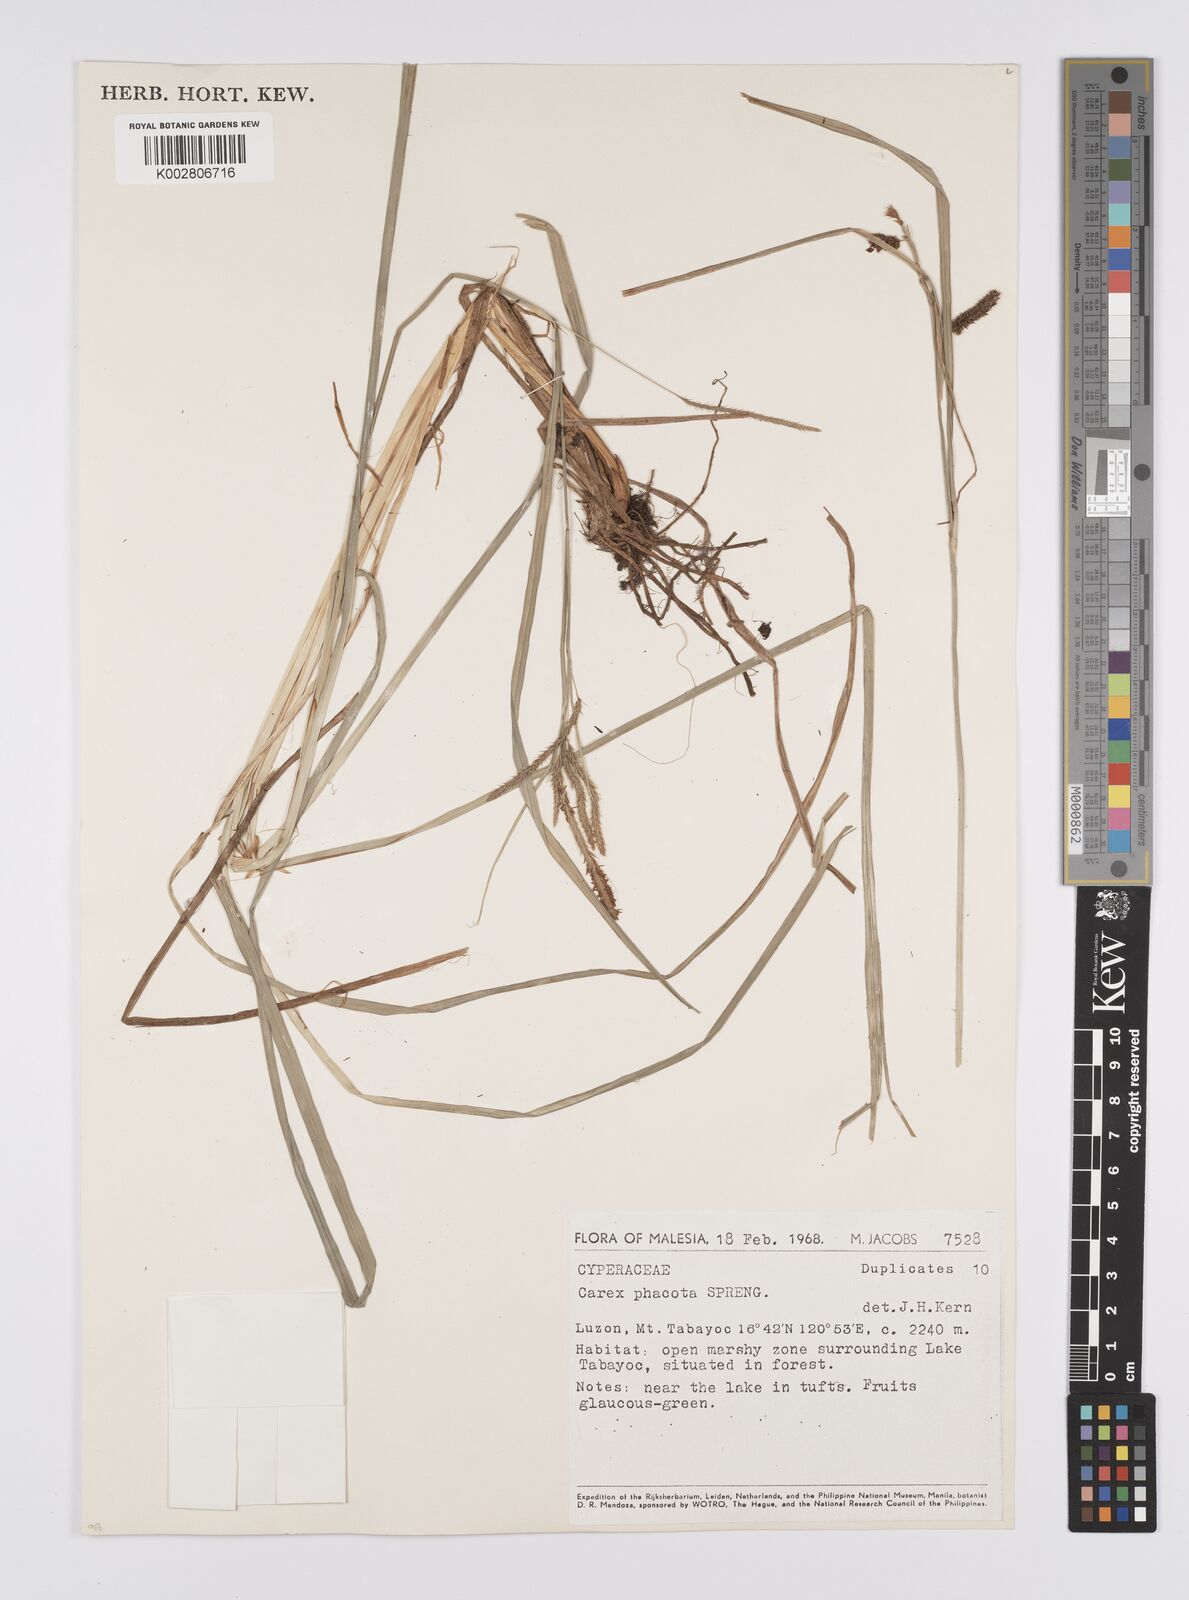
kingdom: Plantae
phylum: Tracheophyta
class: Liliopsida
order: Poales
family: Cyperaceae
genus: Carex
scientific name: Carex phacota
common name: Lakeshore sedge
